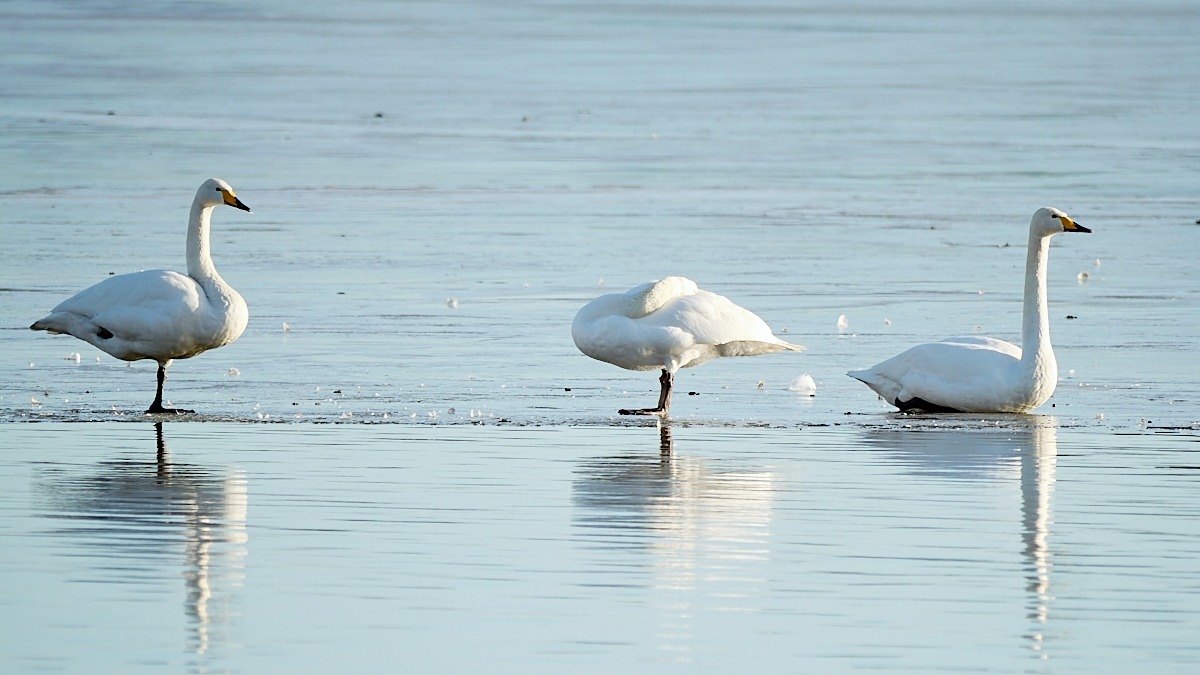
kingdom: Animalia
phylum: Chordata
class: Aves
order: Anseriformes
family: Anatidae
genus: Cygnus
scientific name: Cygnus cygnus
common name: Sangsvane
